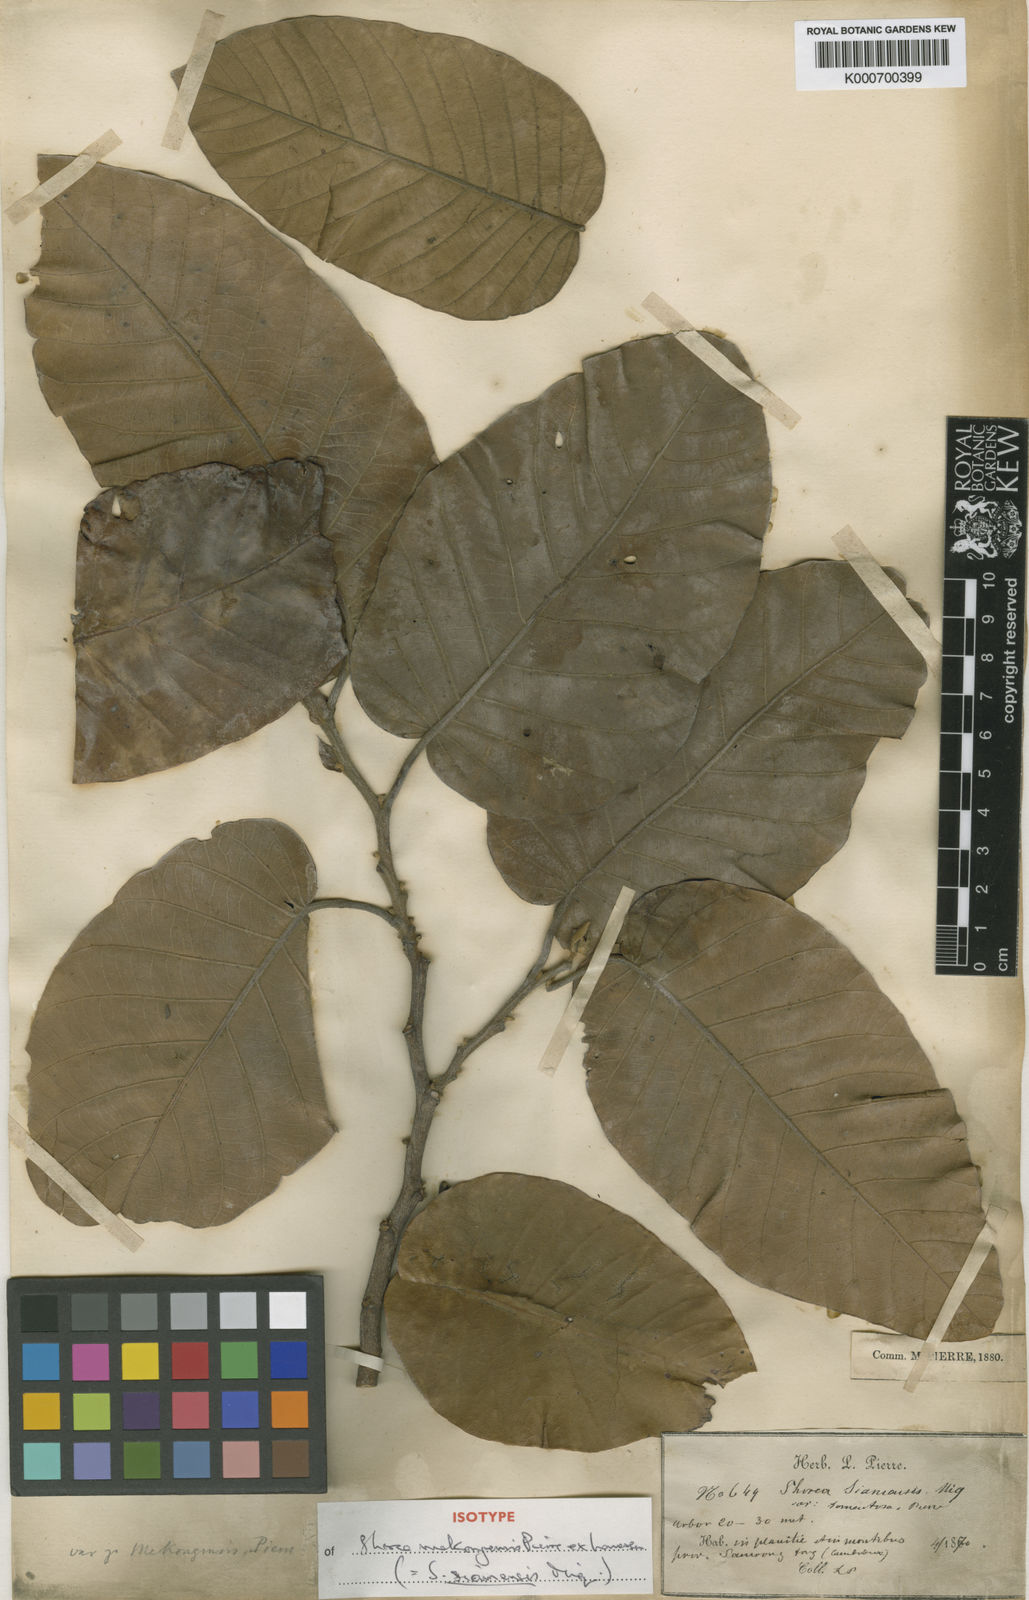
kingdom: Plantae
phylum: Tracheophyta
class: Magnoliopsida
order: Malvales
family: Dipterocarpaceae
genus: Pentacme
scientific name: Pentacme siamensis
